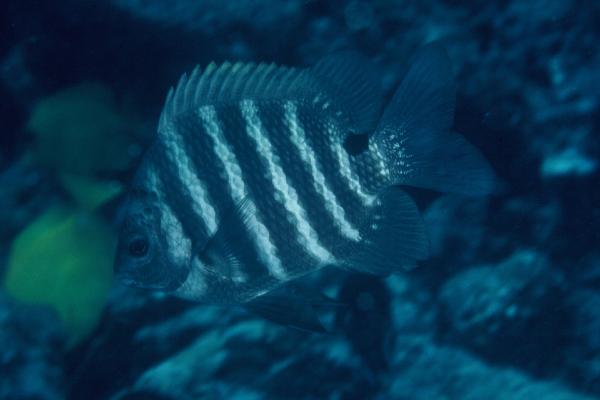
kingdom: Animalia
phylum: Chordata
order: Perciformes
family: Pomacentridae
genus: Abudefduf
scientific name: Abudefduf sordidus
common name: Blackspot sergeant
